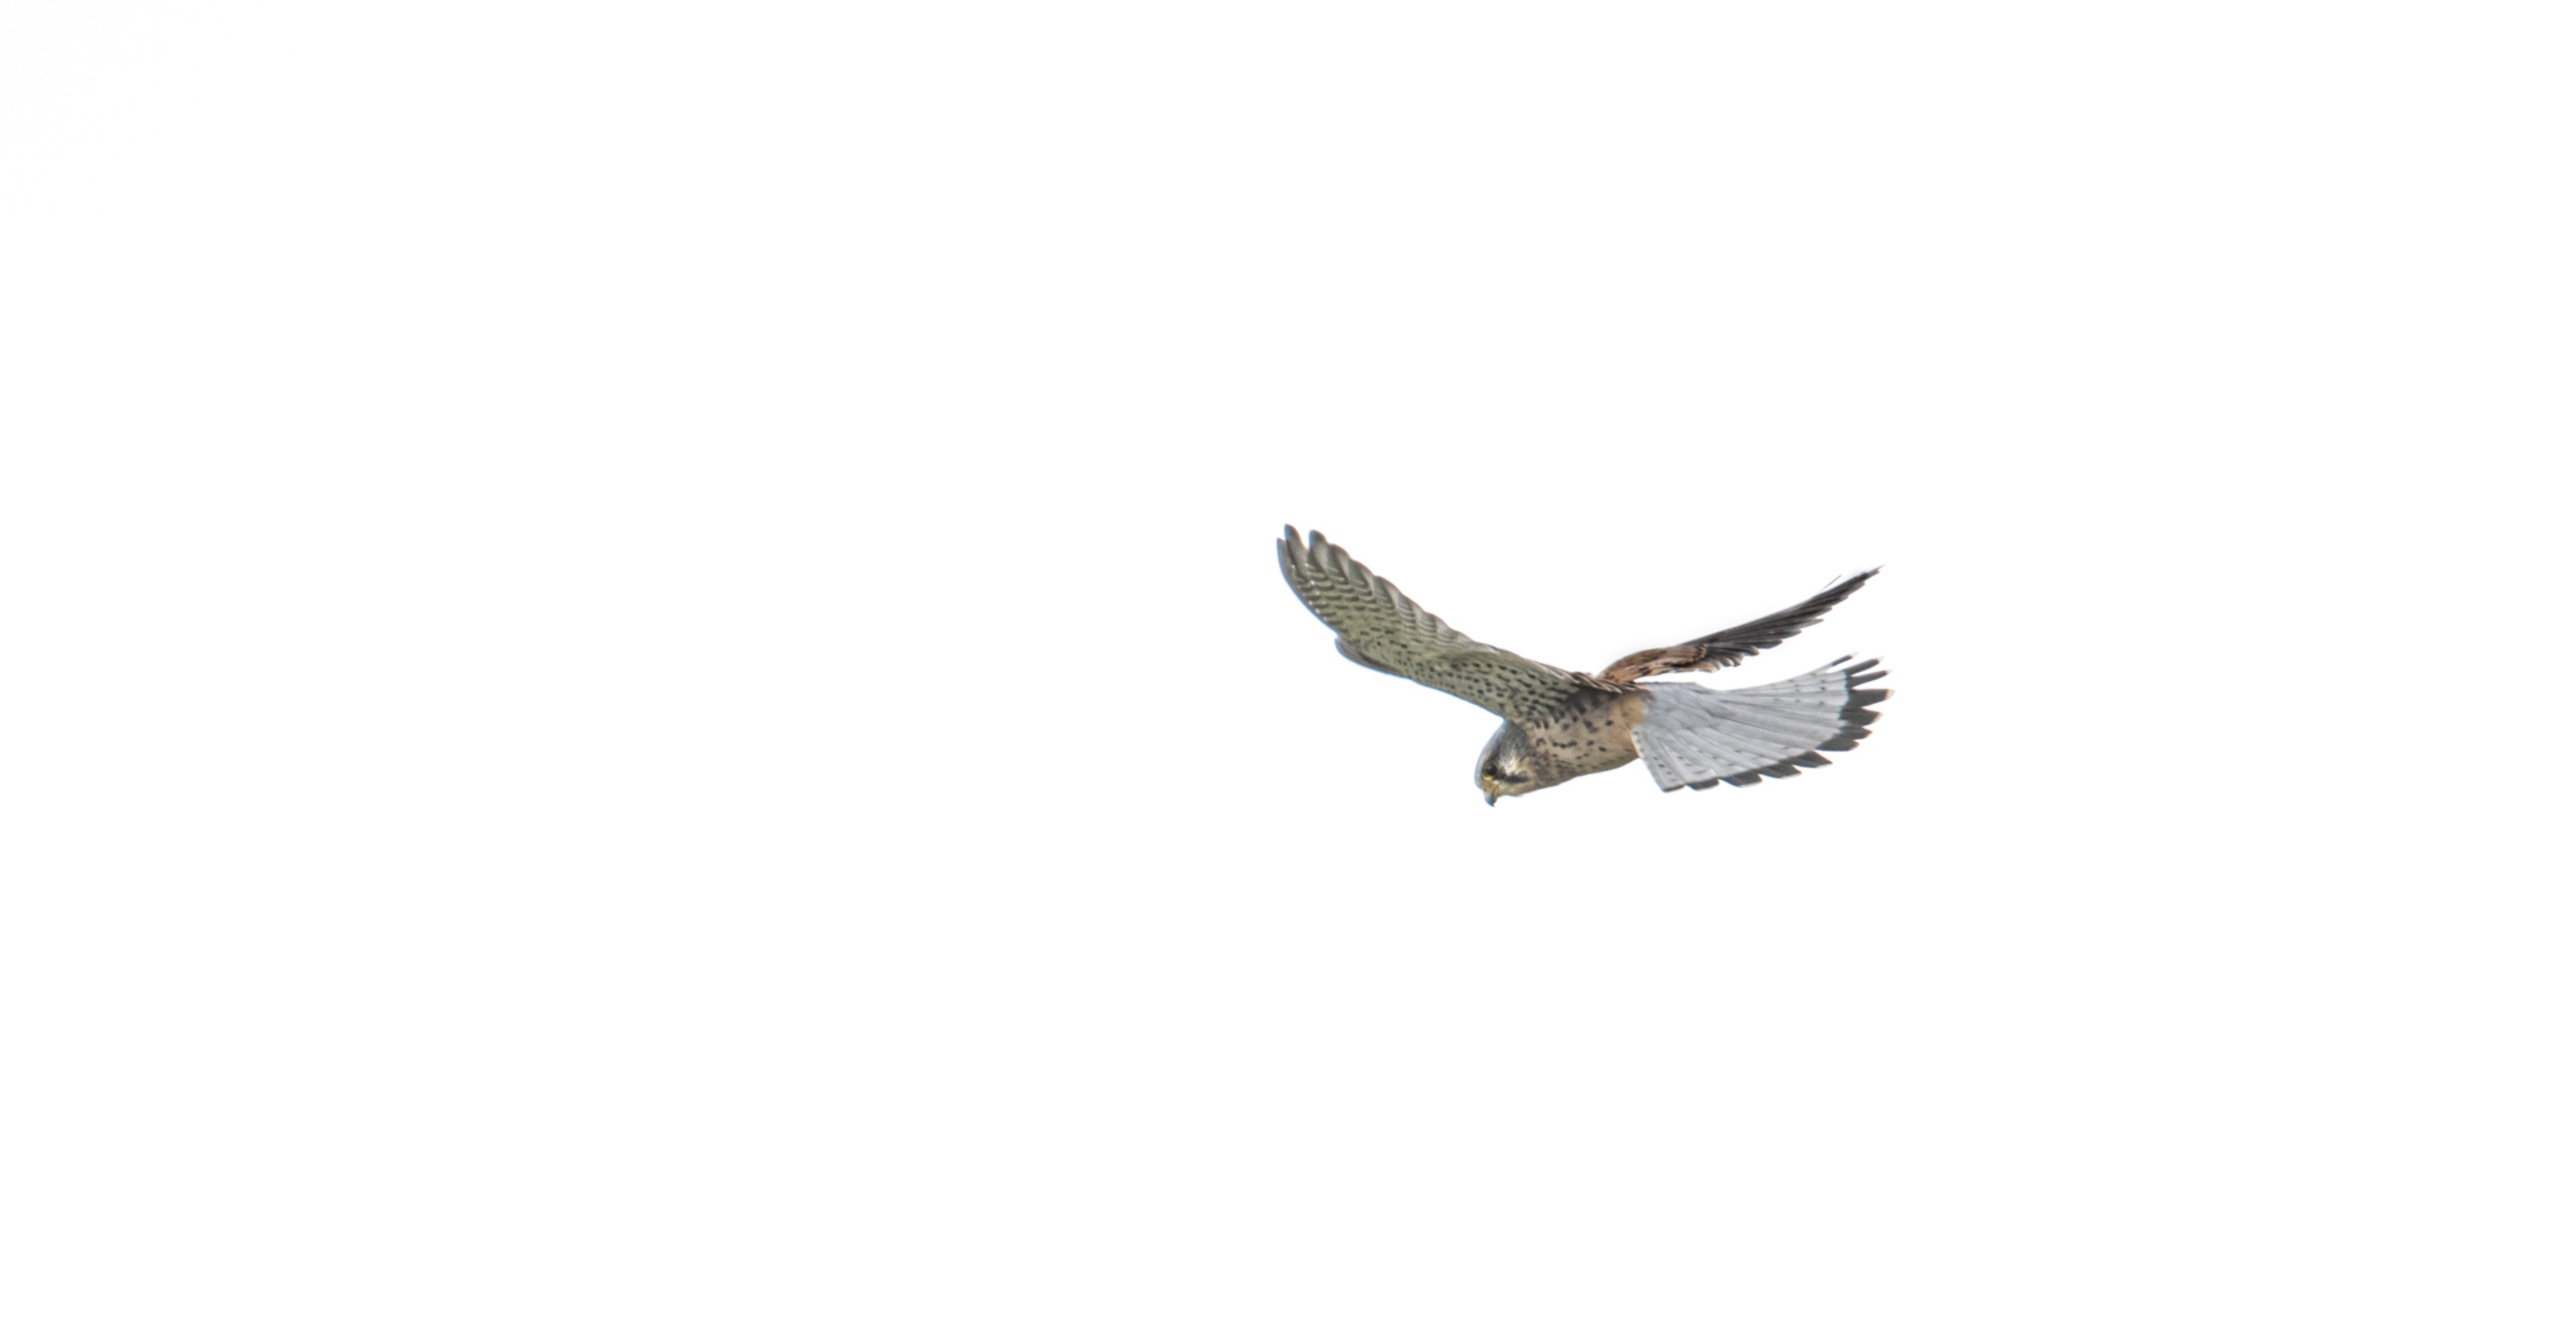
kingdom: Animalia
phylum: Chordata
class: Aves
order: Falconiformes
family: Falconidae
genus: Falco
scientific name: Falco tinnunculus
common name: Tårnfalk
